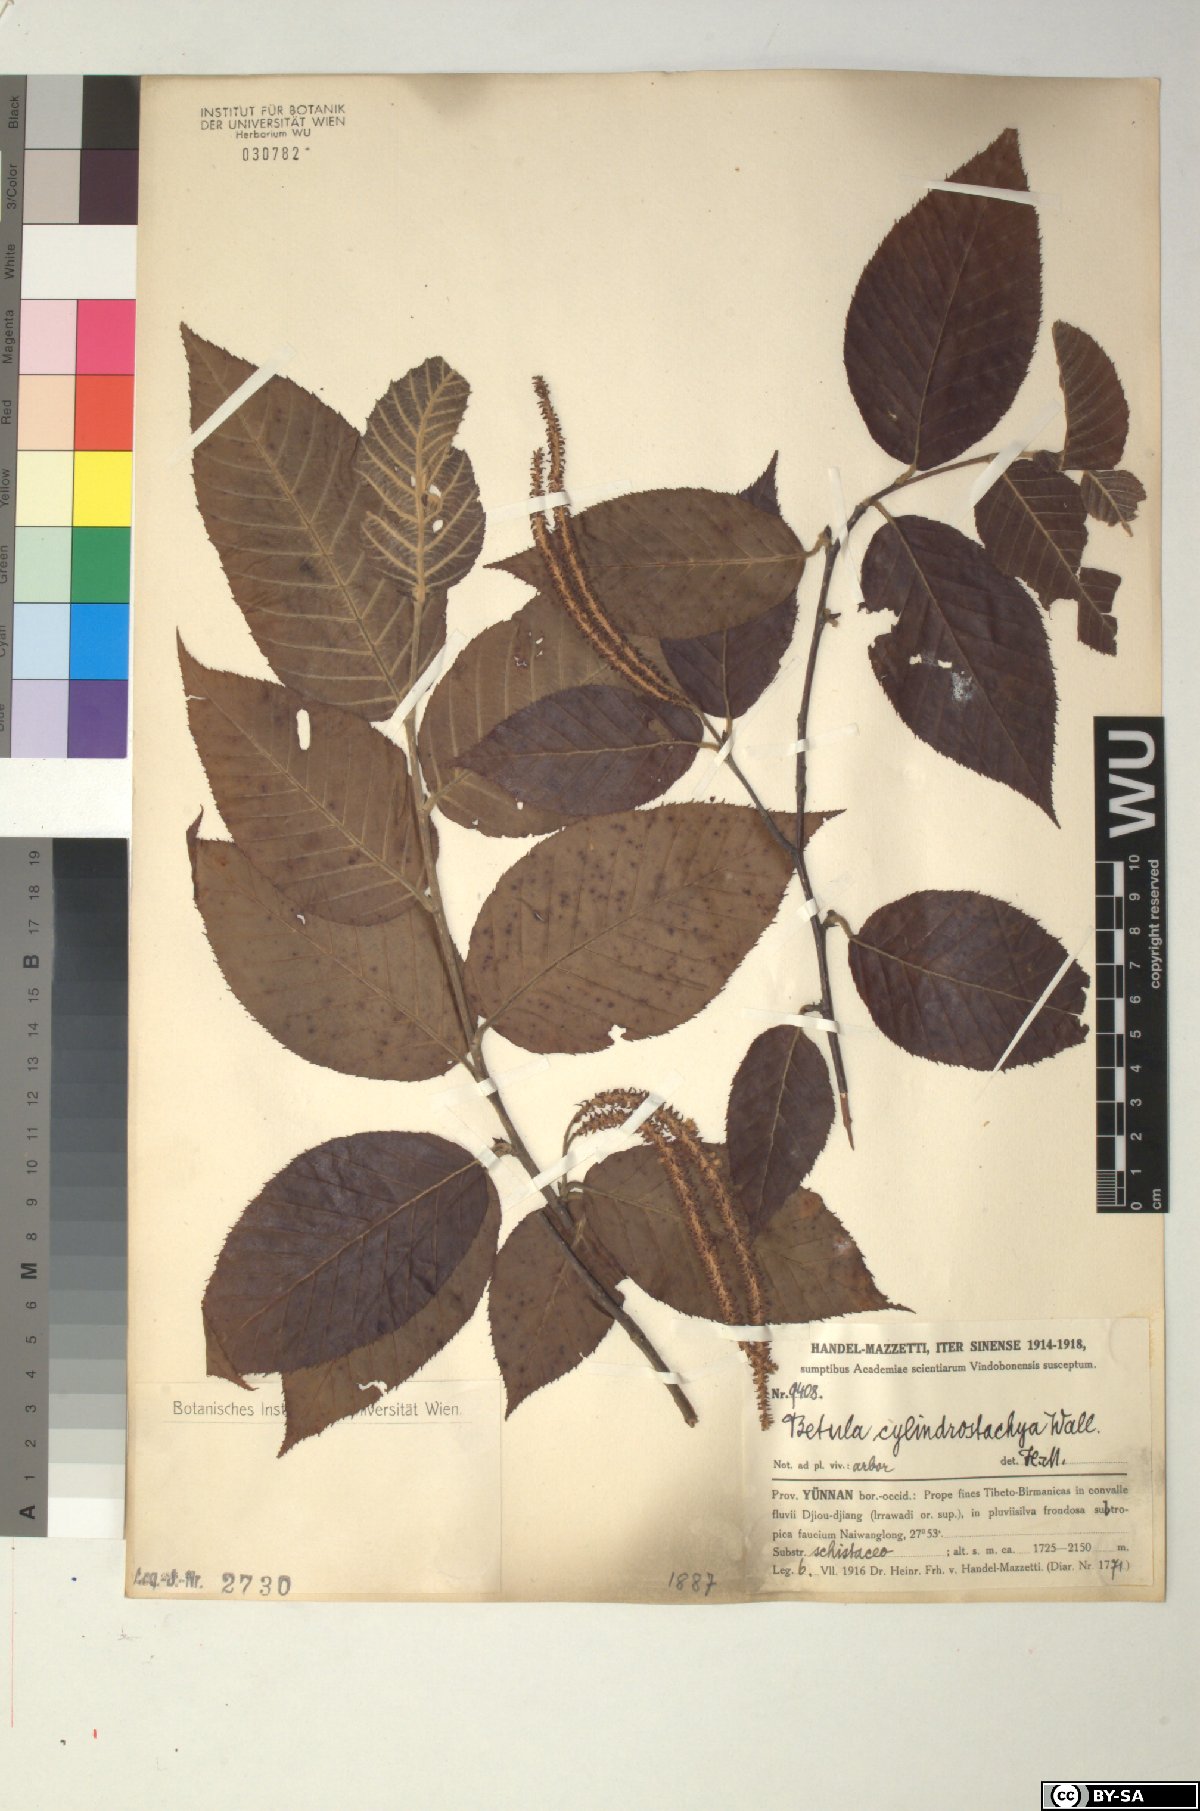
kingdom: Plantae
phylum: Tracheophyta
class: Magnoliopsida
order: Fagales
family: Betulaceae
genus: Betula
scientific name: Betula cylindrostachya
